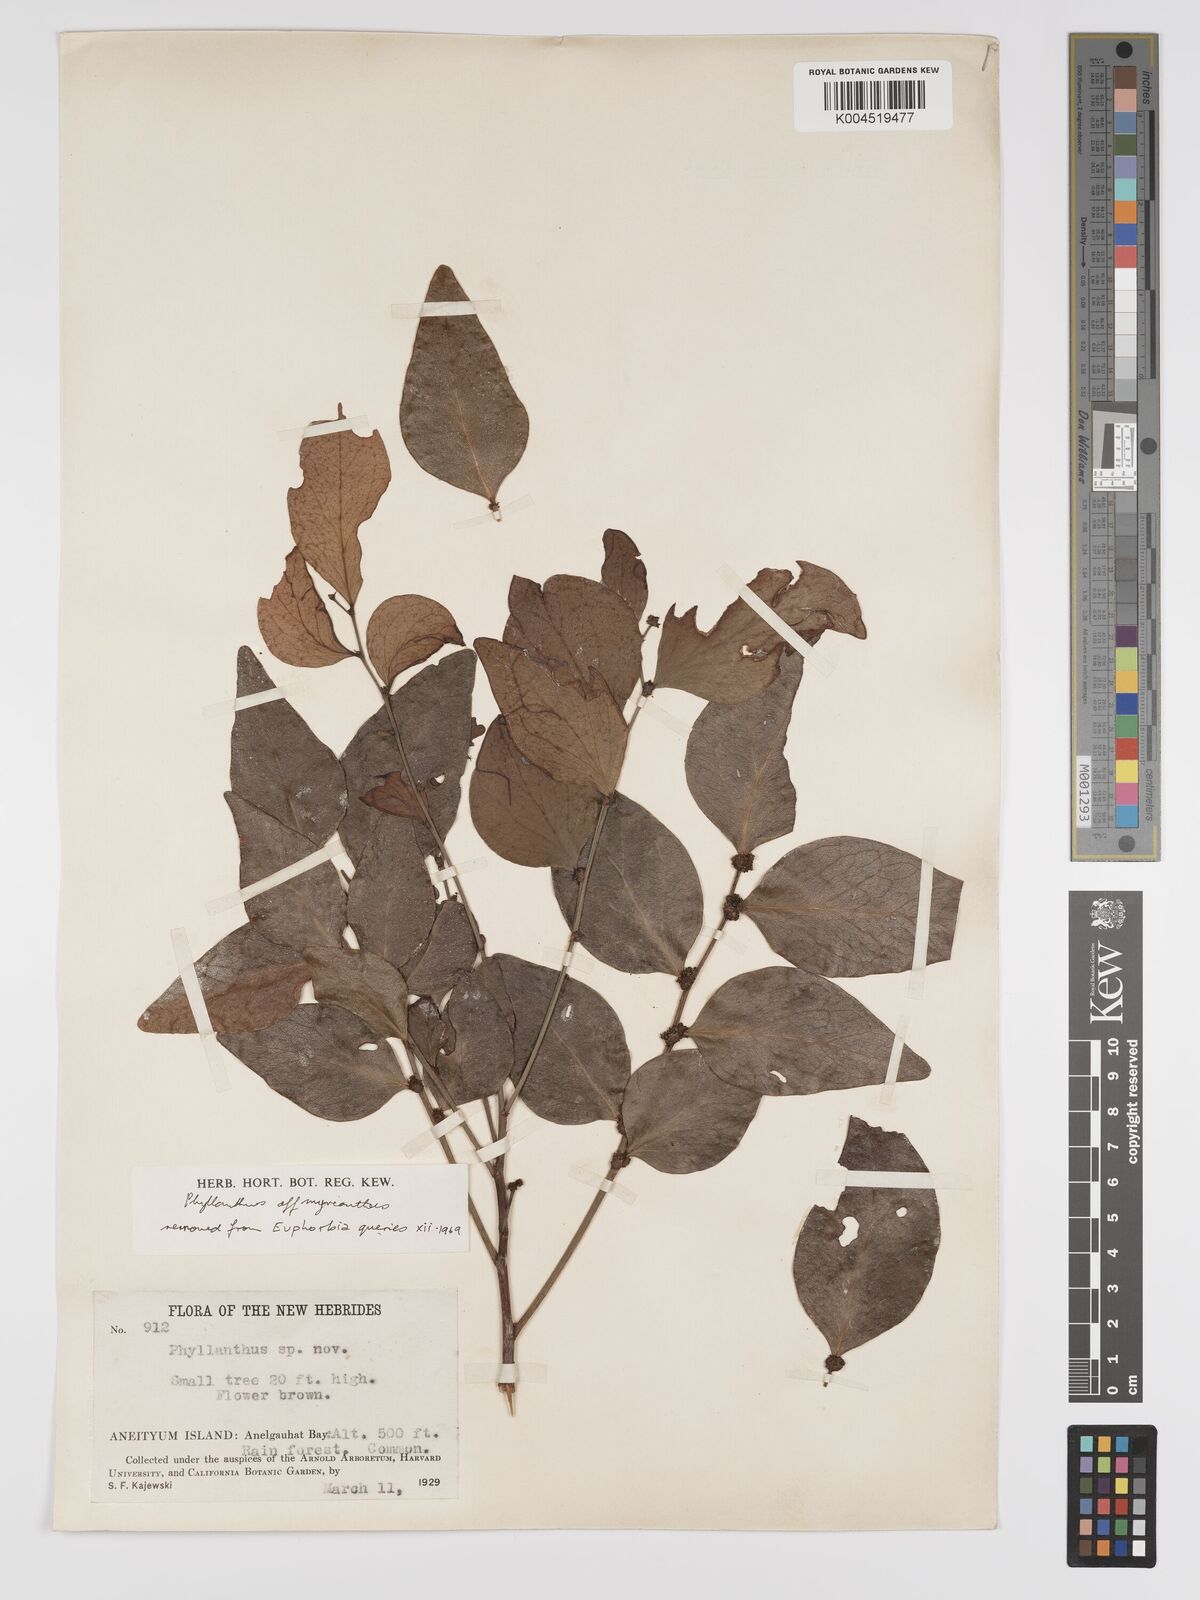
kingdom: Plantae
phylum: Tracheophyta
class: Magnoliopsida
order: Malpighiales
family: Phyllanthaceae
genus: Glochidion
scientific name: Glochidion myrianthum
